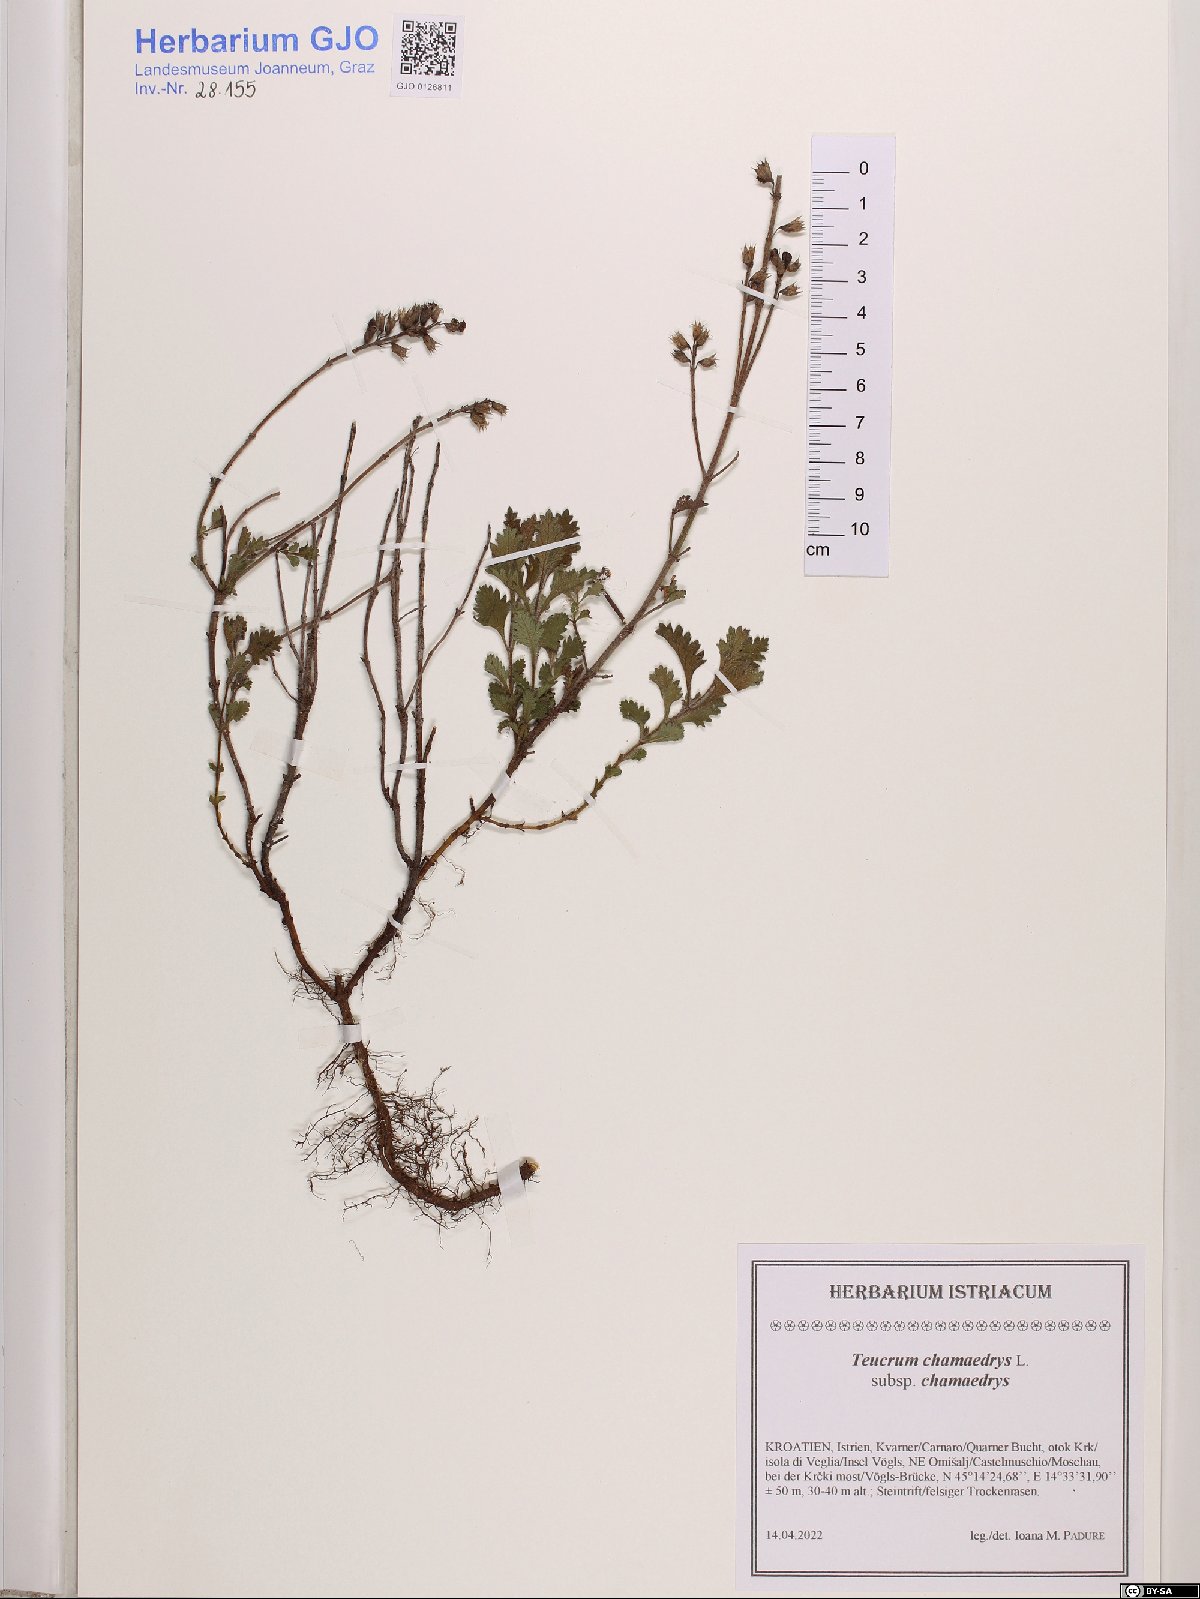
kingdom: Plantae
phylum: Tracheophyta
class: Magnoliopsida
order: Lamiales
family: Lamiaceae
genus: Teucrium
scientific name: Teucrium chamaedrys
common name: Wall germander
